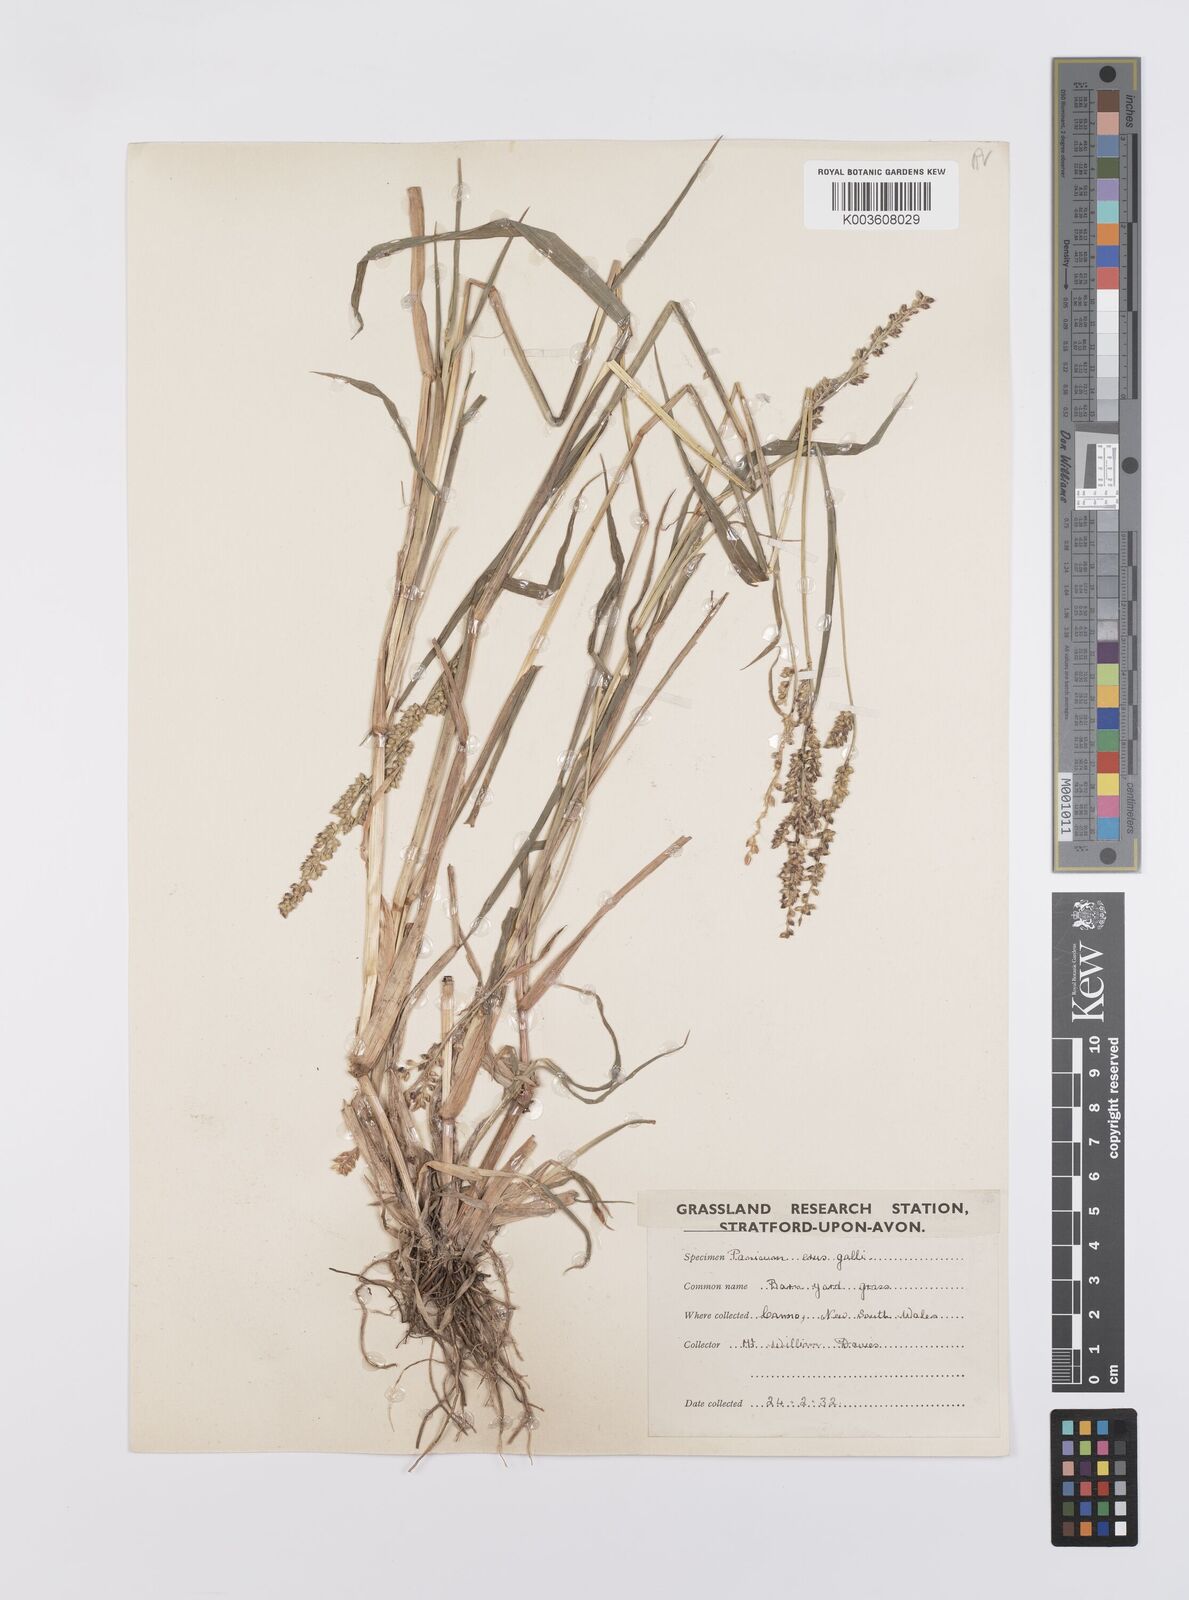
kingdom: Plantae
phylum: Tracheophyta
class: Liliopsida
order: Poales
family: Poaceae
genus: Echinochloa
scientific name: Echinochloa crus-galli
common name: Cockspur
